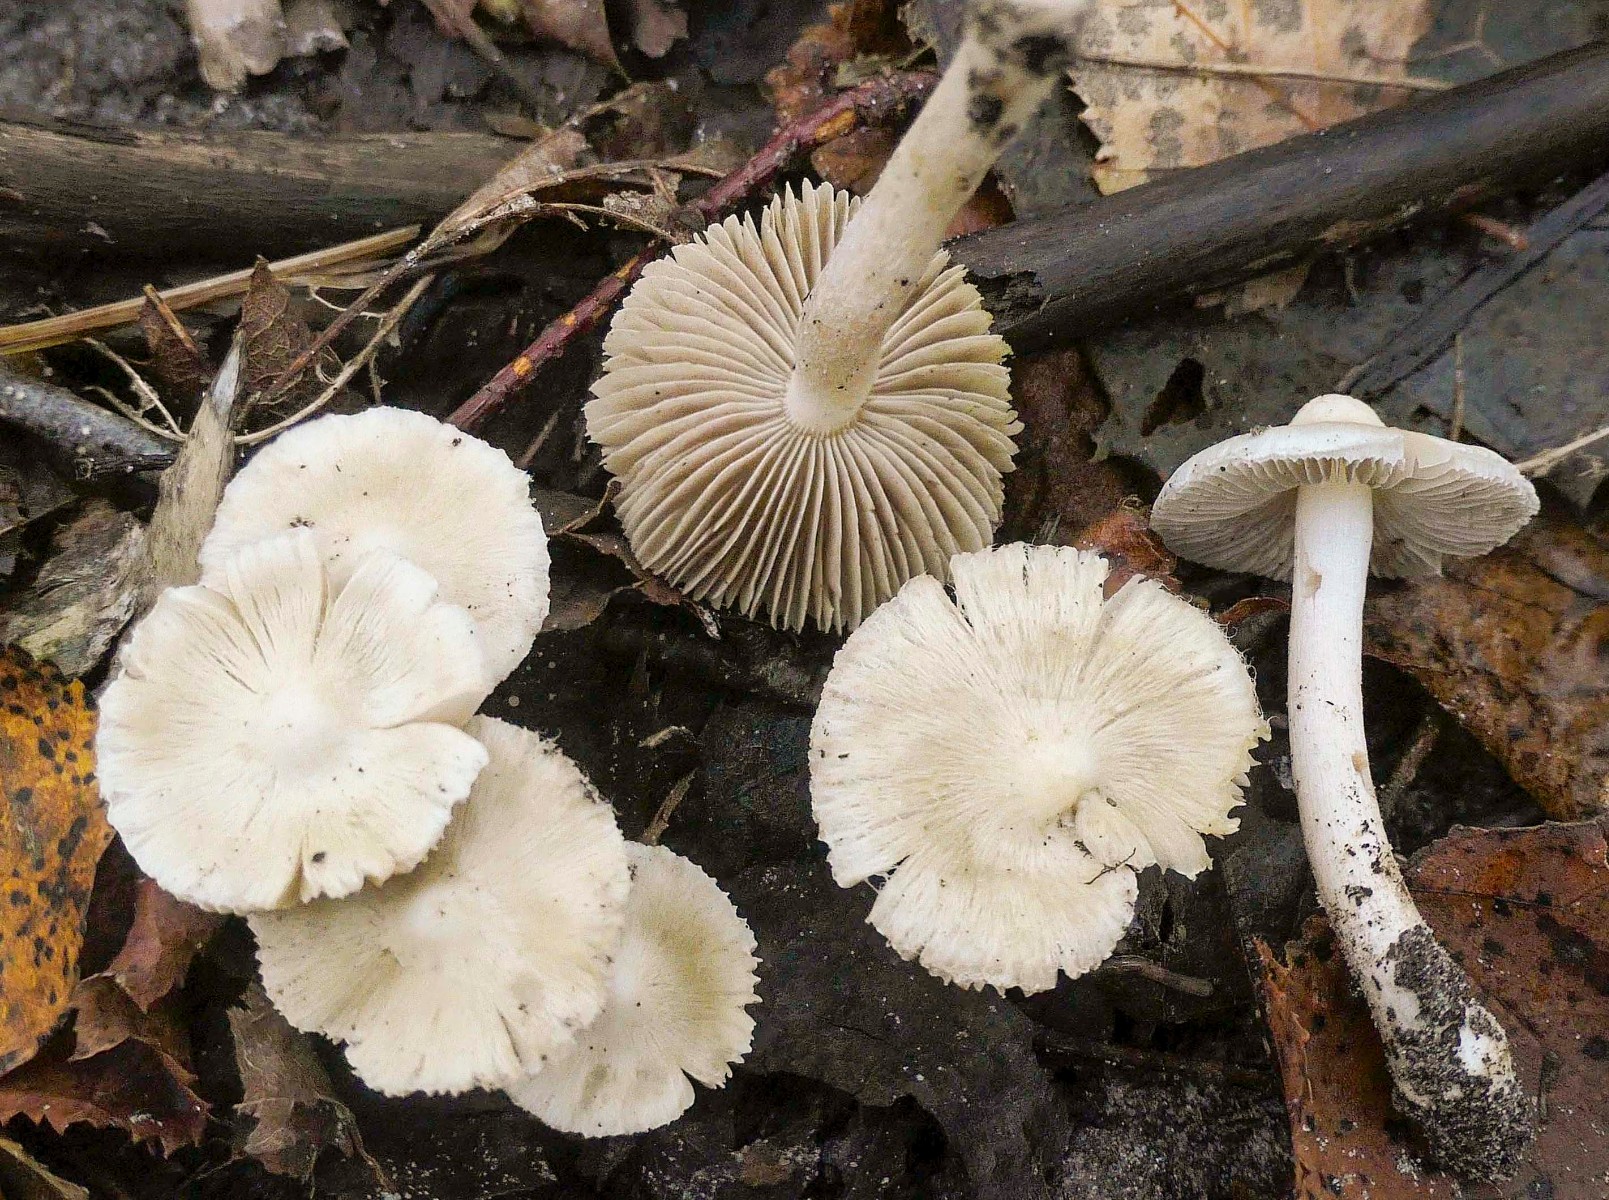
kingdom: Fungi
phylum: Basidiomycota
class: Agaricomycetes
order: Agaricales
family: Inocybaceae
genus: Inocybe
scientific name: Inocybe
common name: trævlhat
